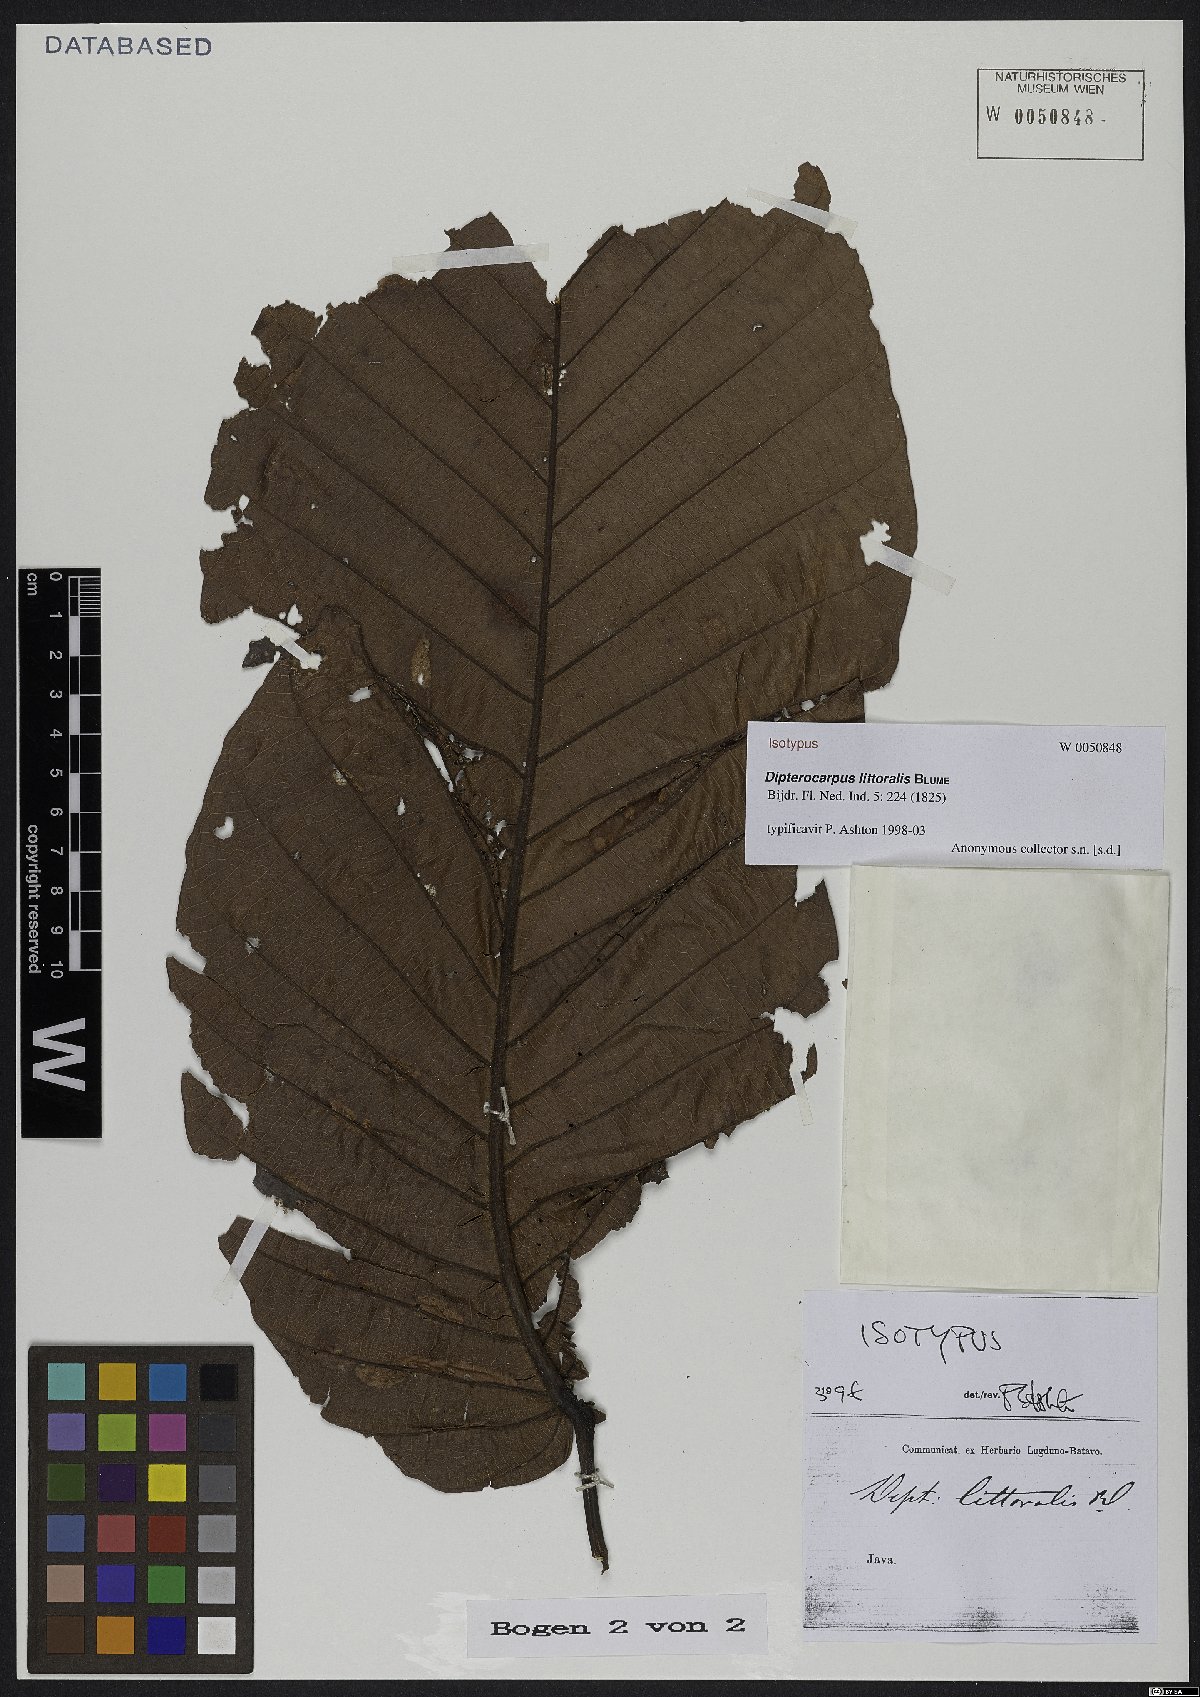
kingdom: Plantae
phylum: Tracheophyta
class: Magnoliopsida
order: Malvales
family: Dipterocarpaceae
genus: Dipterocarpus
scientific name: Dipterocarpus littoralis
